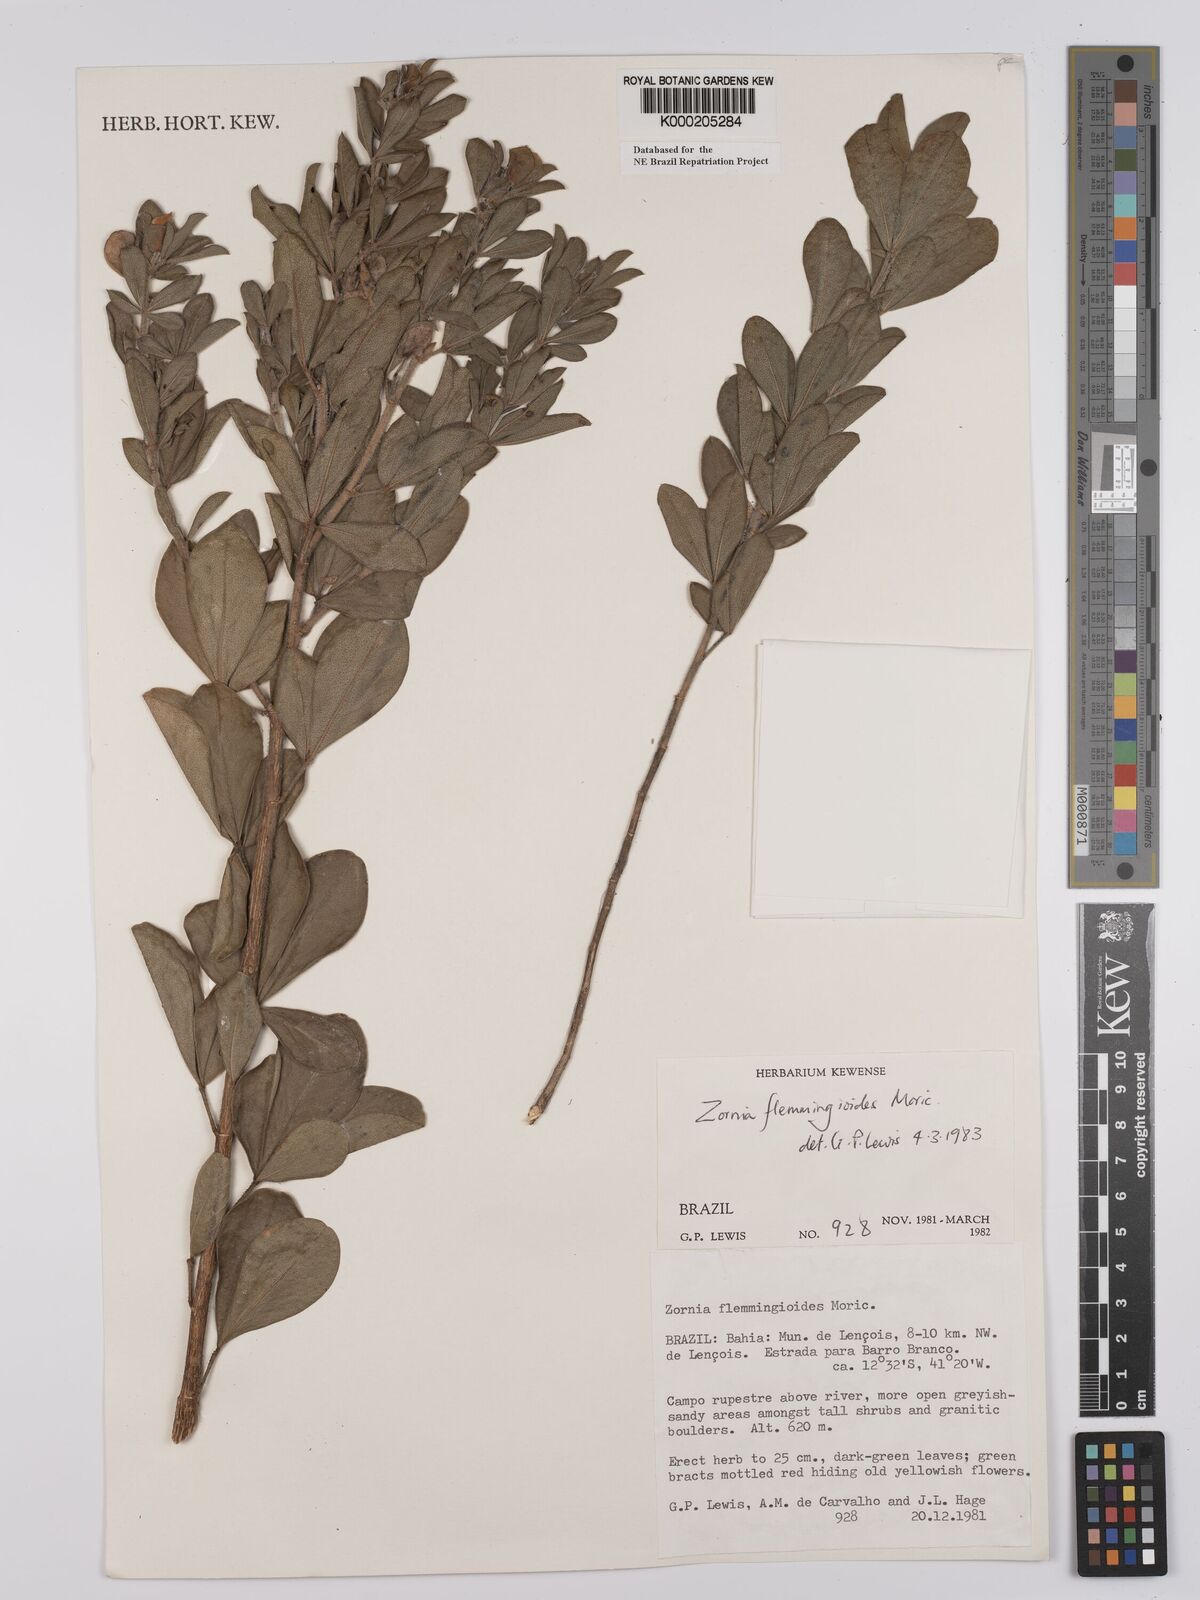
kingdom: Plantae
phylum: Tracheophyta
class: Magnoliopsida
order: Fabales
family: Fabaceae
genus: Zornia
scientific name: Zornia flemmingioides
